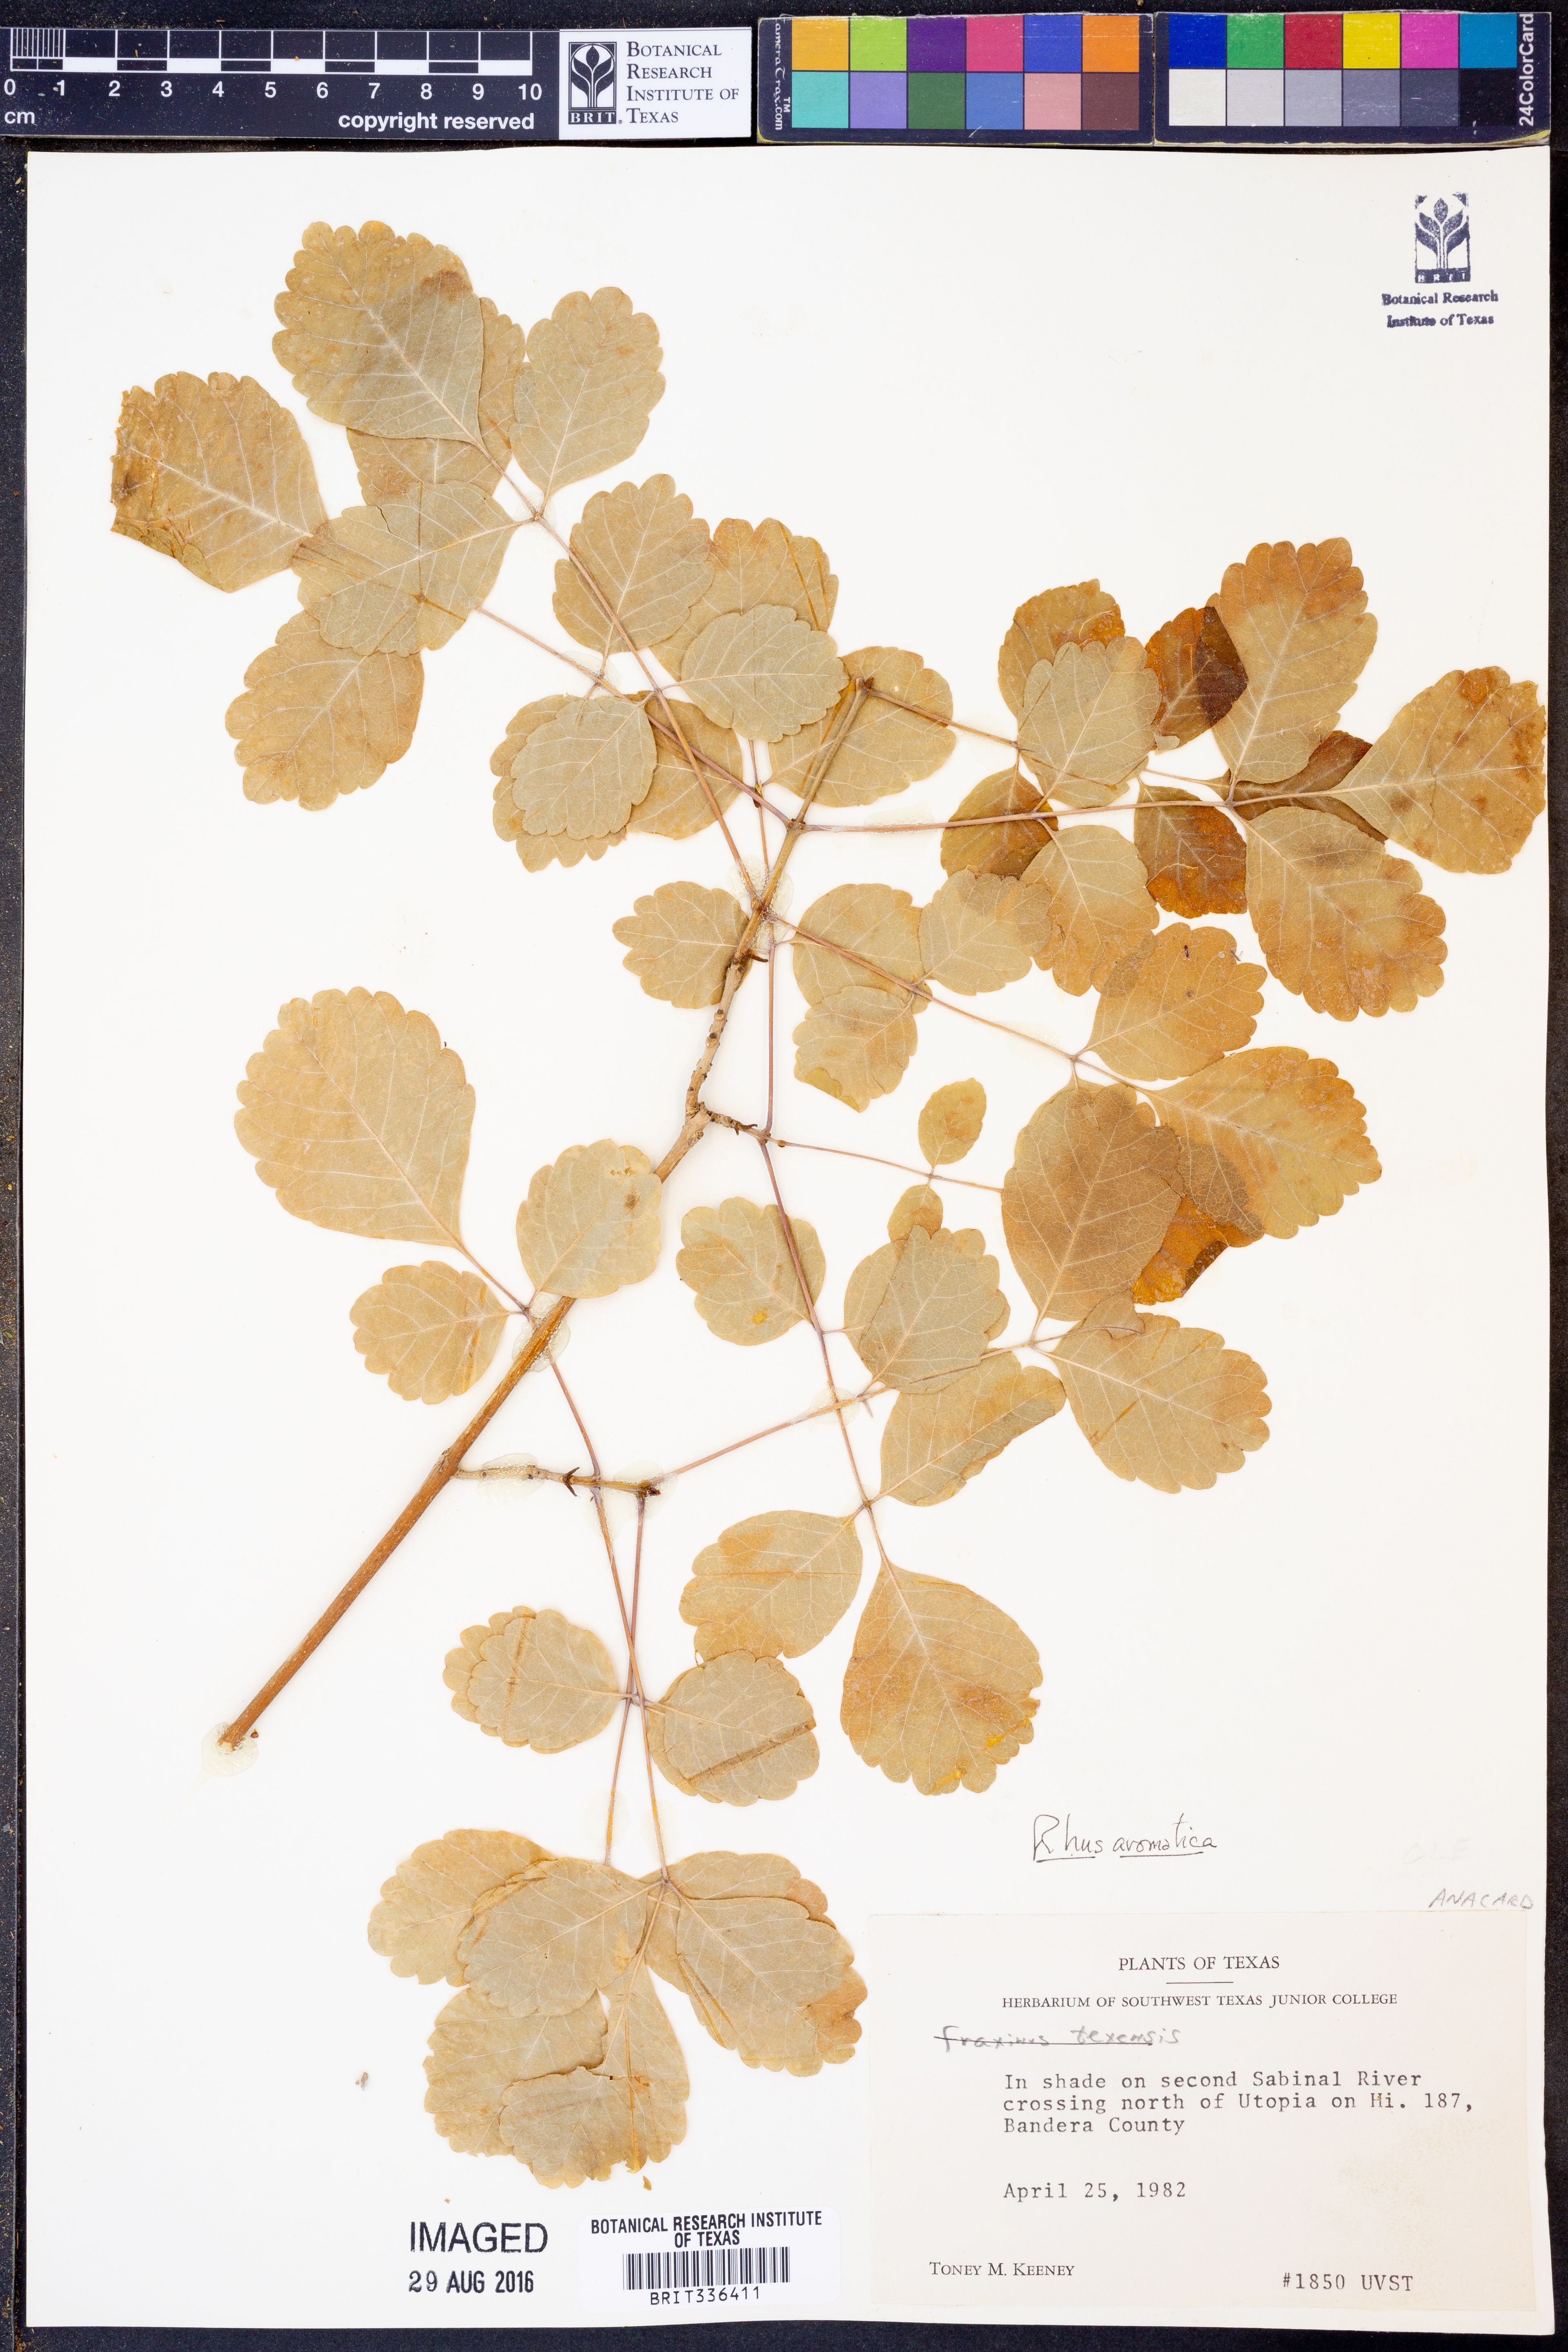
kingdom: Plantae
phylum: Tracheophyta
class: Magnoliopsida
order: Sapindales
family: Anacardiaceae
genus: Rhus
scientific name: Rhus aromatica
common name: Aromatic sumac
